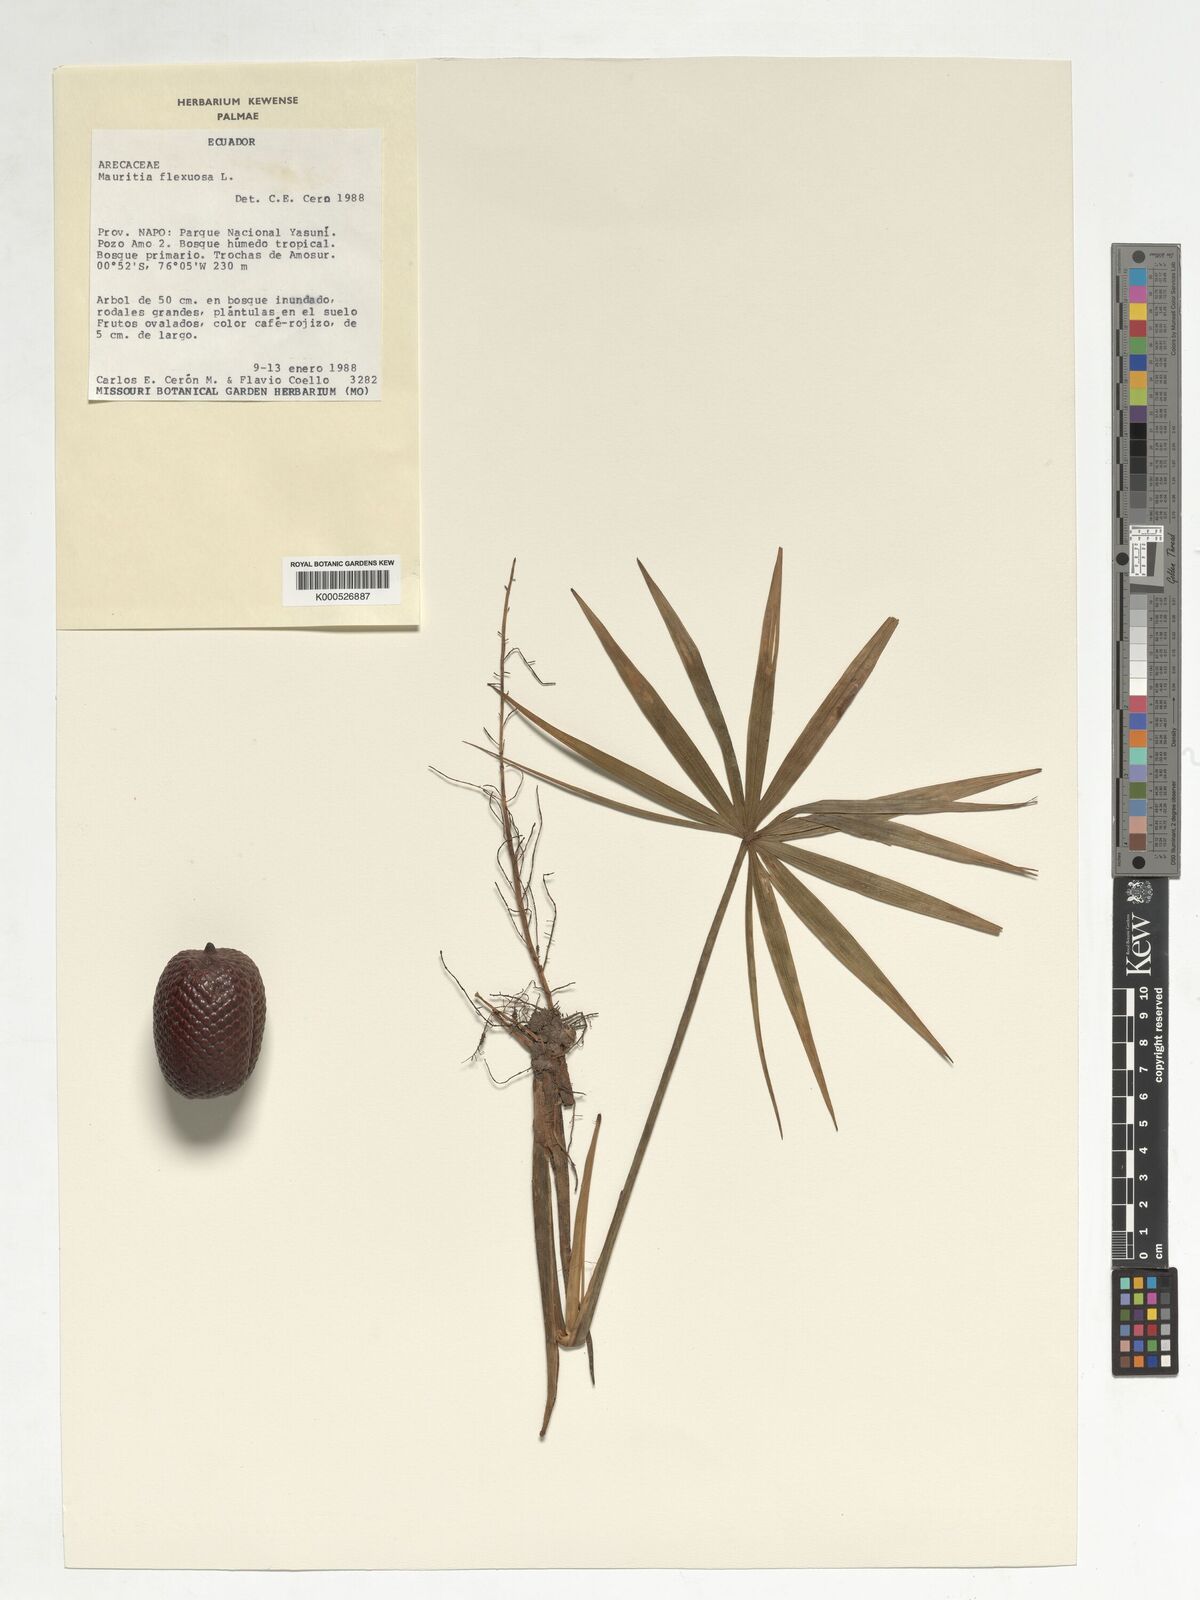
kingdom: Plantae
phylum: Tracheophyta
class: Liliopsida
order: Arecales
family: Arecaceae
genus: Mauritia
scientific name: Mauritia flexuosa
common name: Tree-of-life
